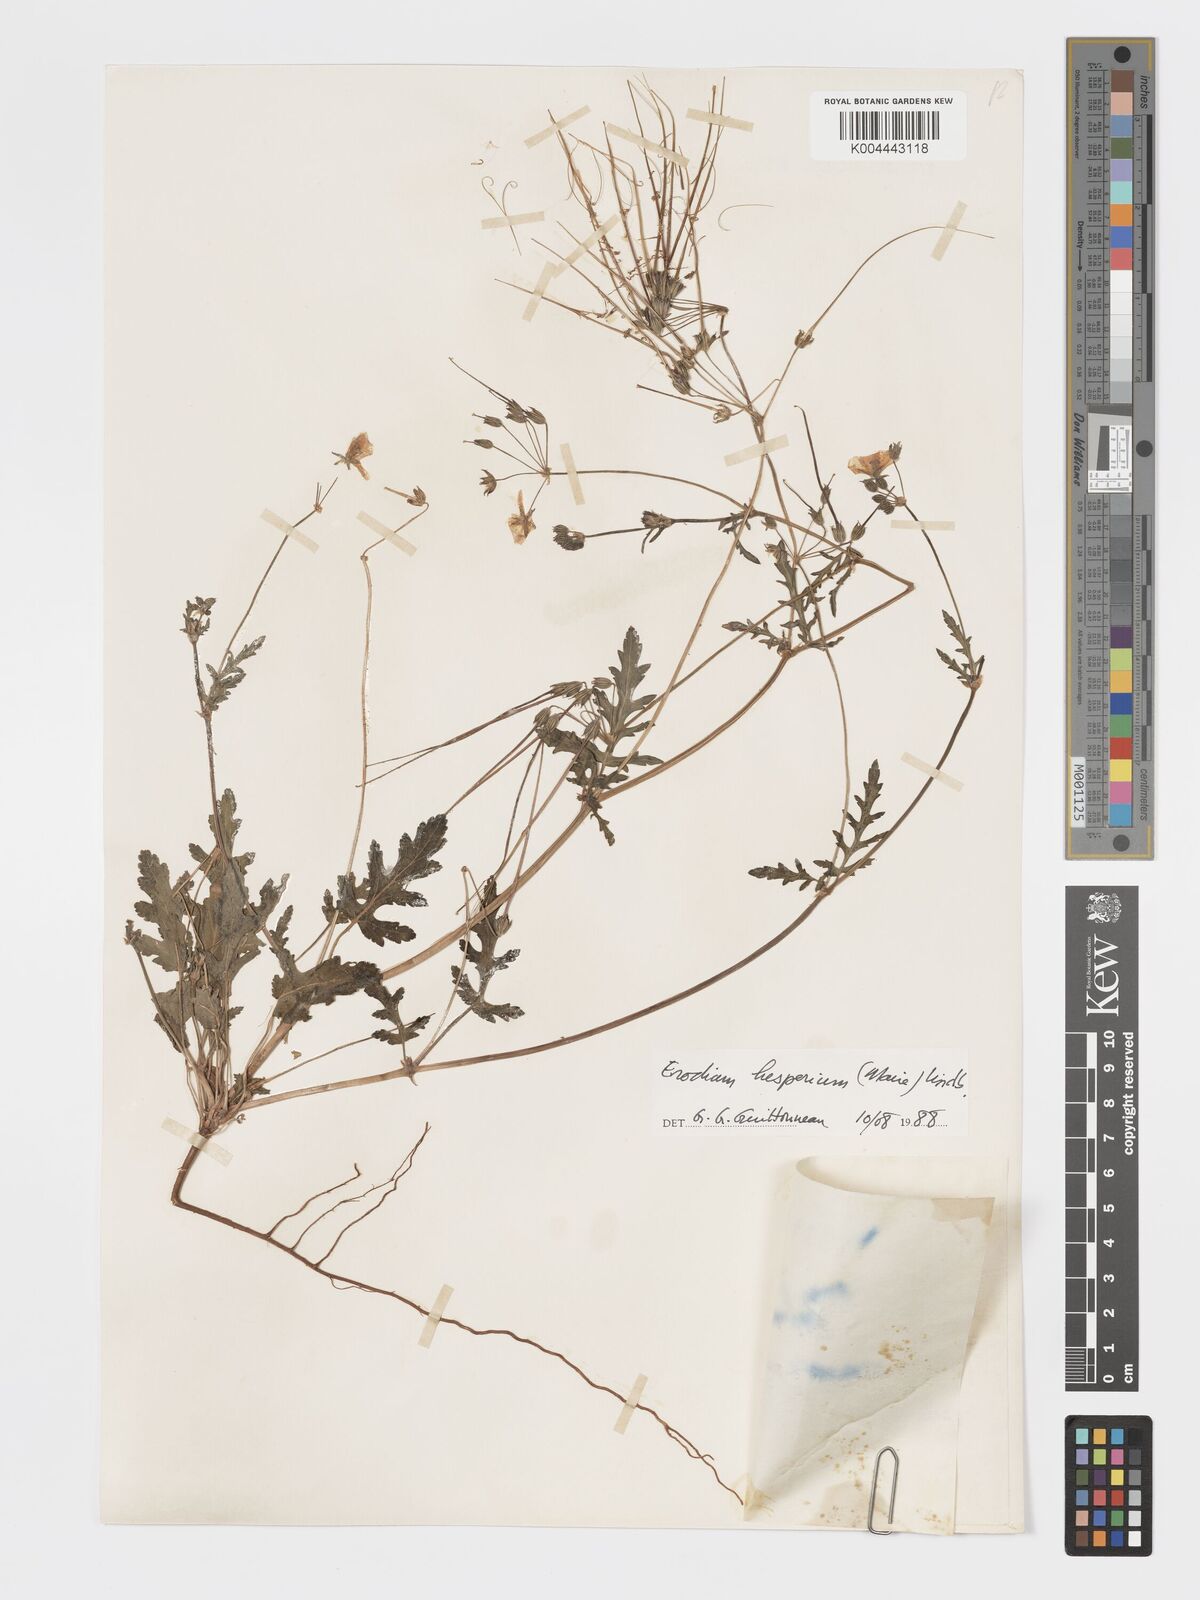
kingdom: Plantae
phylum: Tracheophyta
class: Magnoliopsida
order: Geraniales
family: Geraniaceae
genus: Erodium
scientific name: Erodium hesperium
